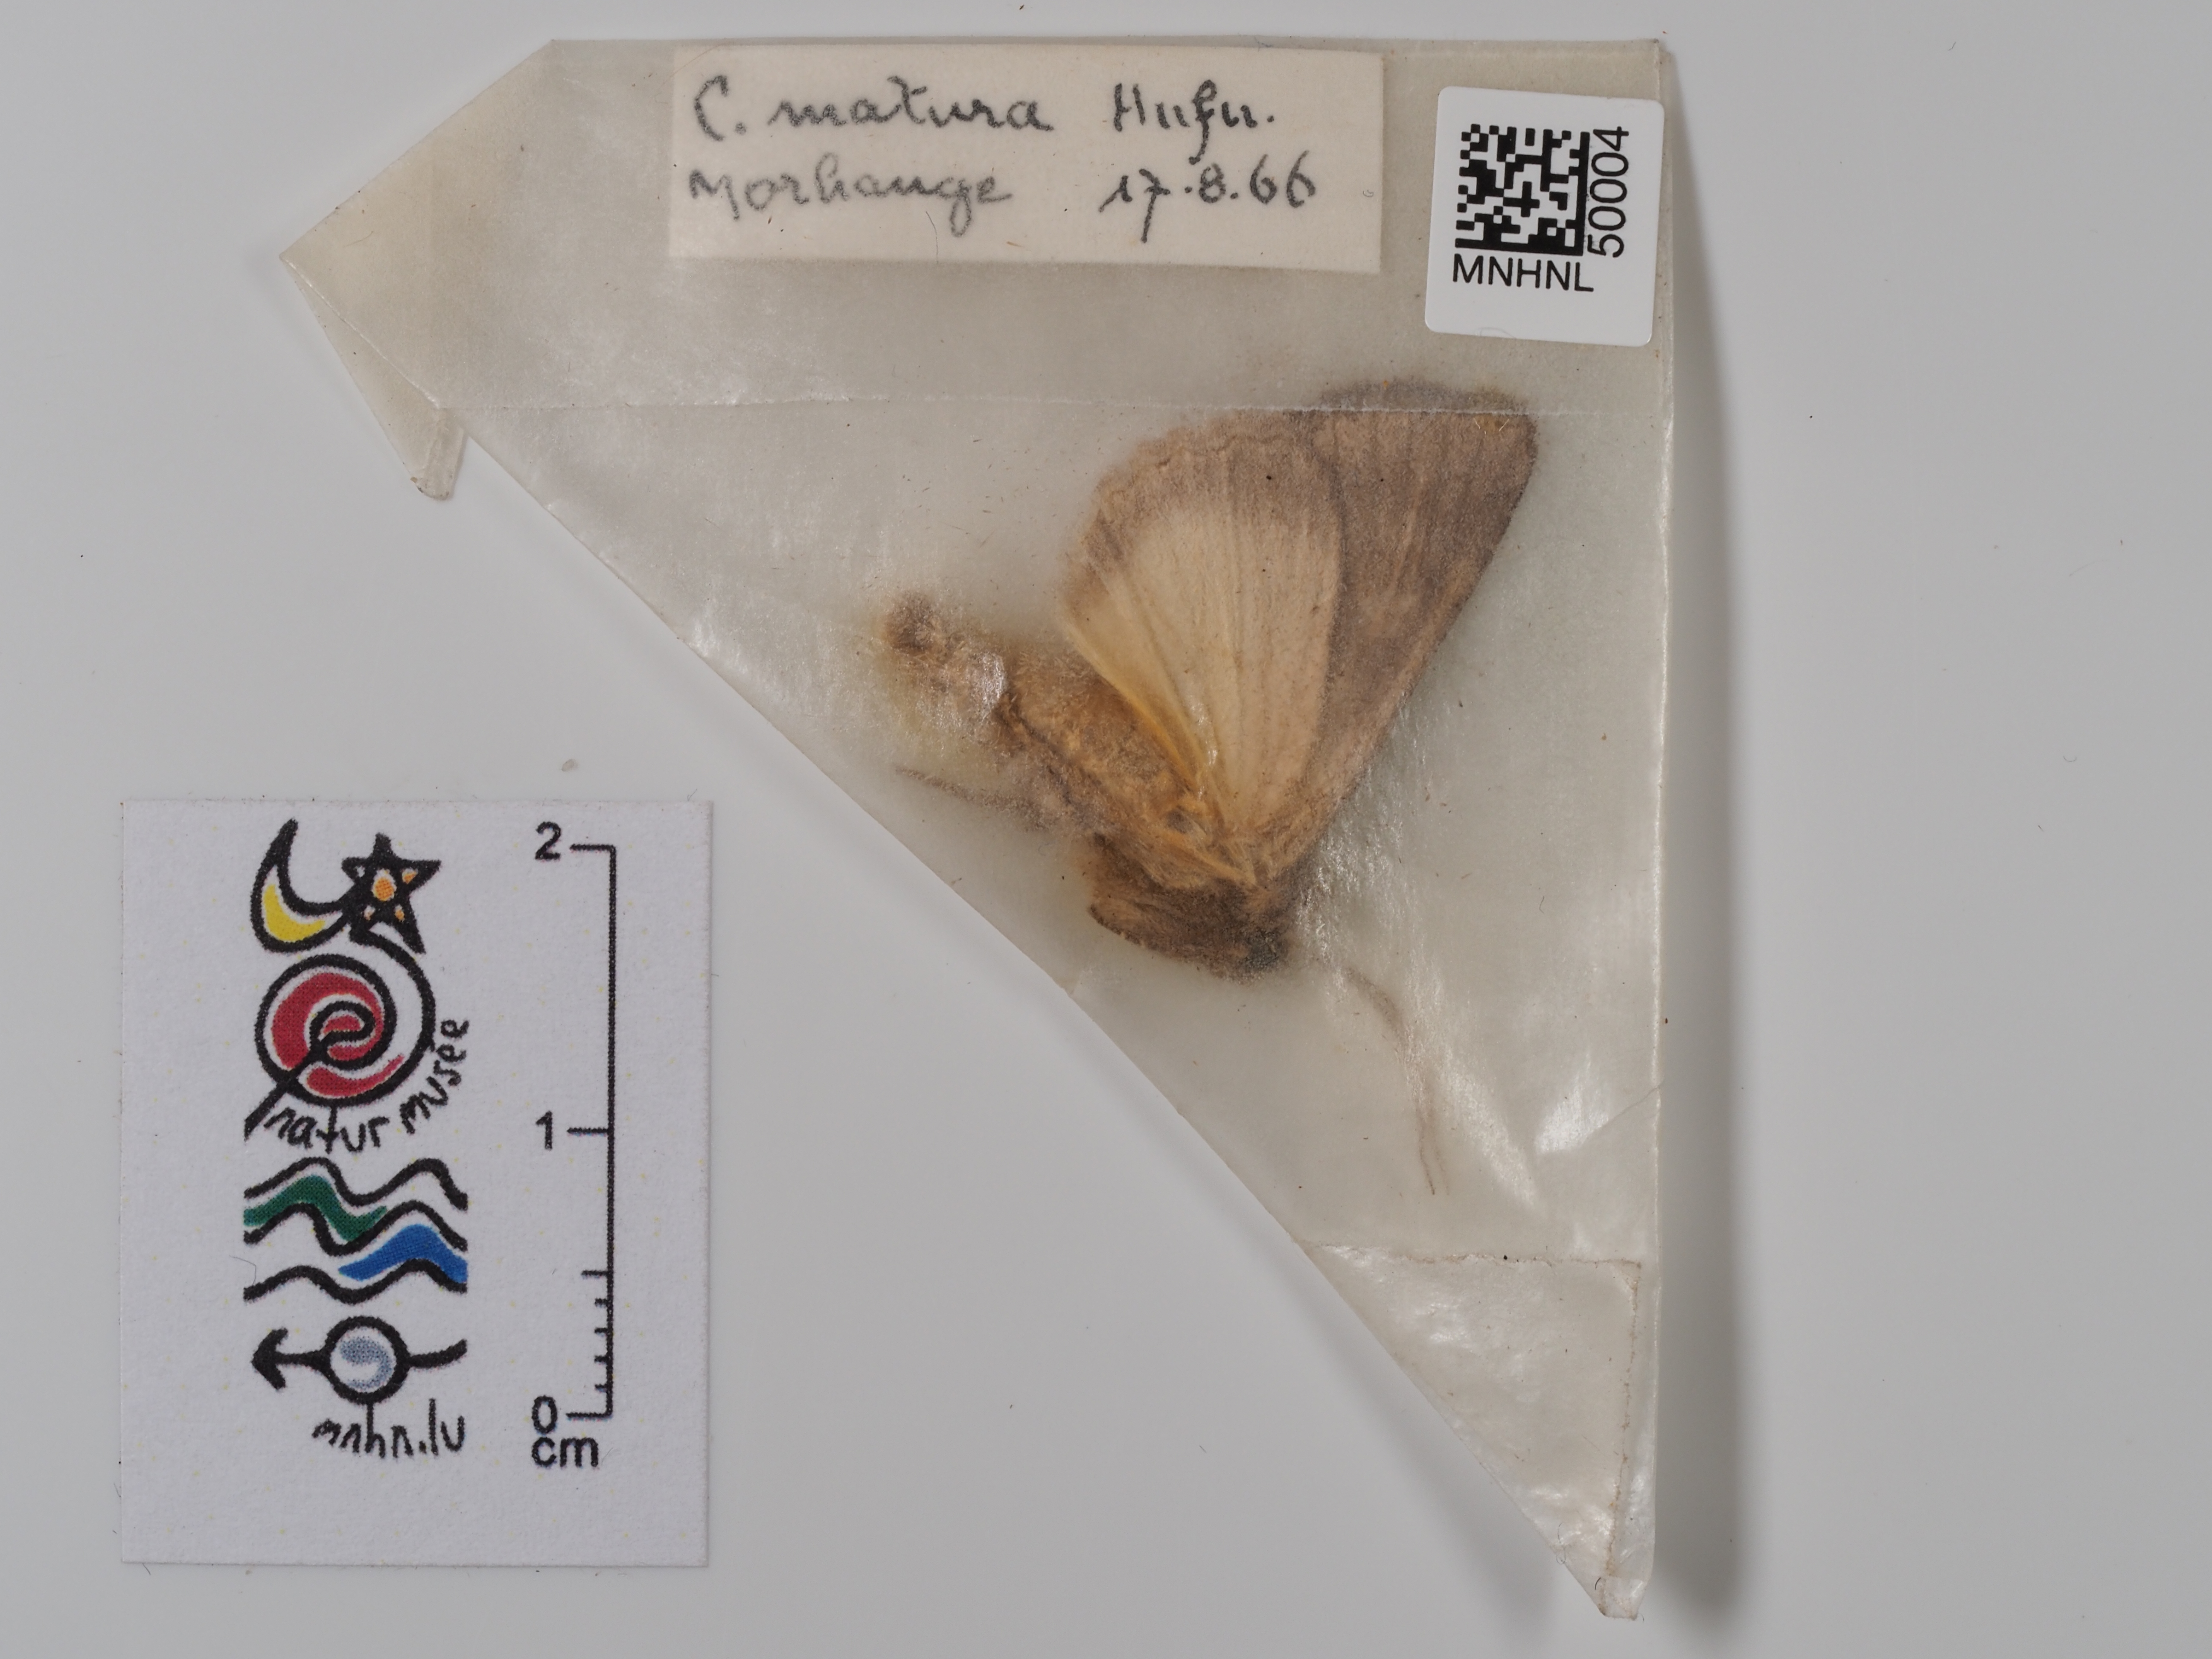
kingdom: Animalia
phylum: Arthropoda
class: Insecta
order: Lepidoptera
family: Noctuidae
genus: Thalpophila
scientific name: Thalpophila matura
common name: Straw underwing
